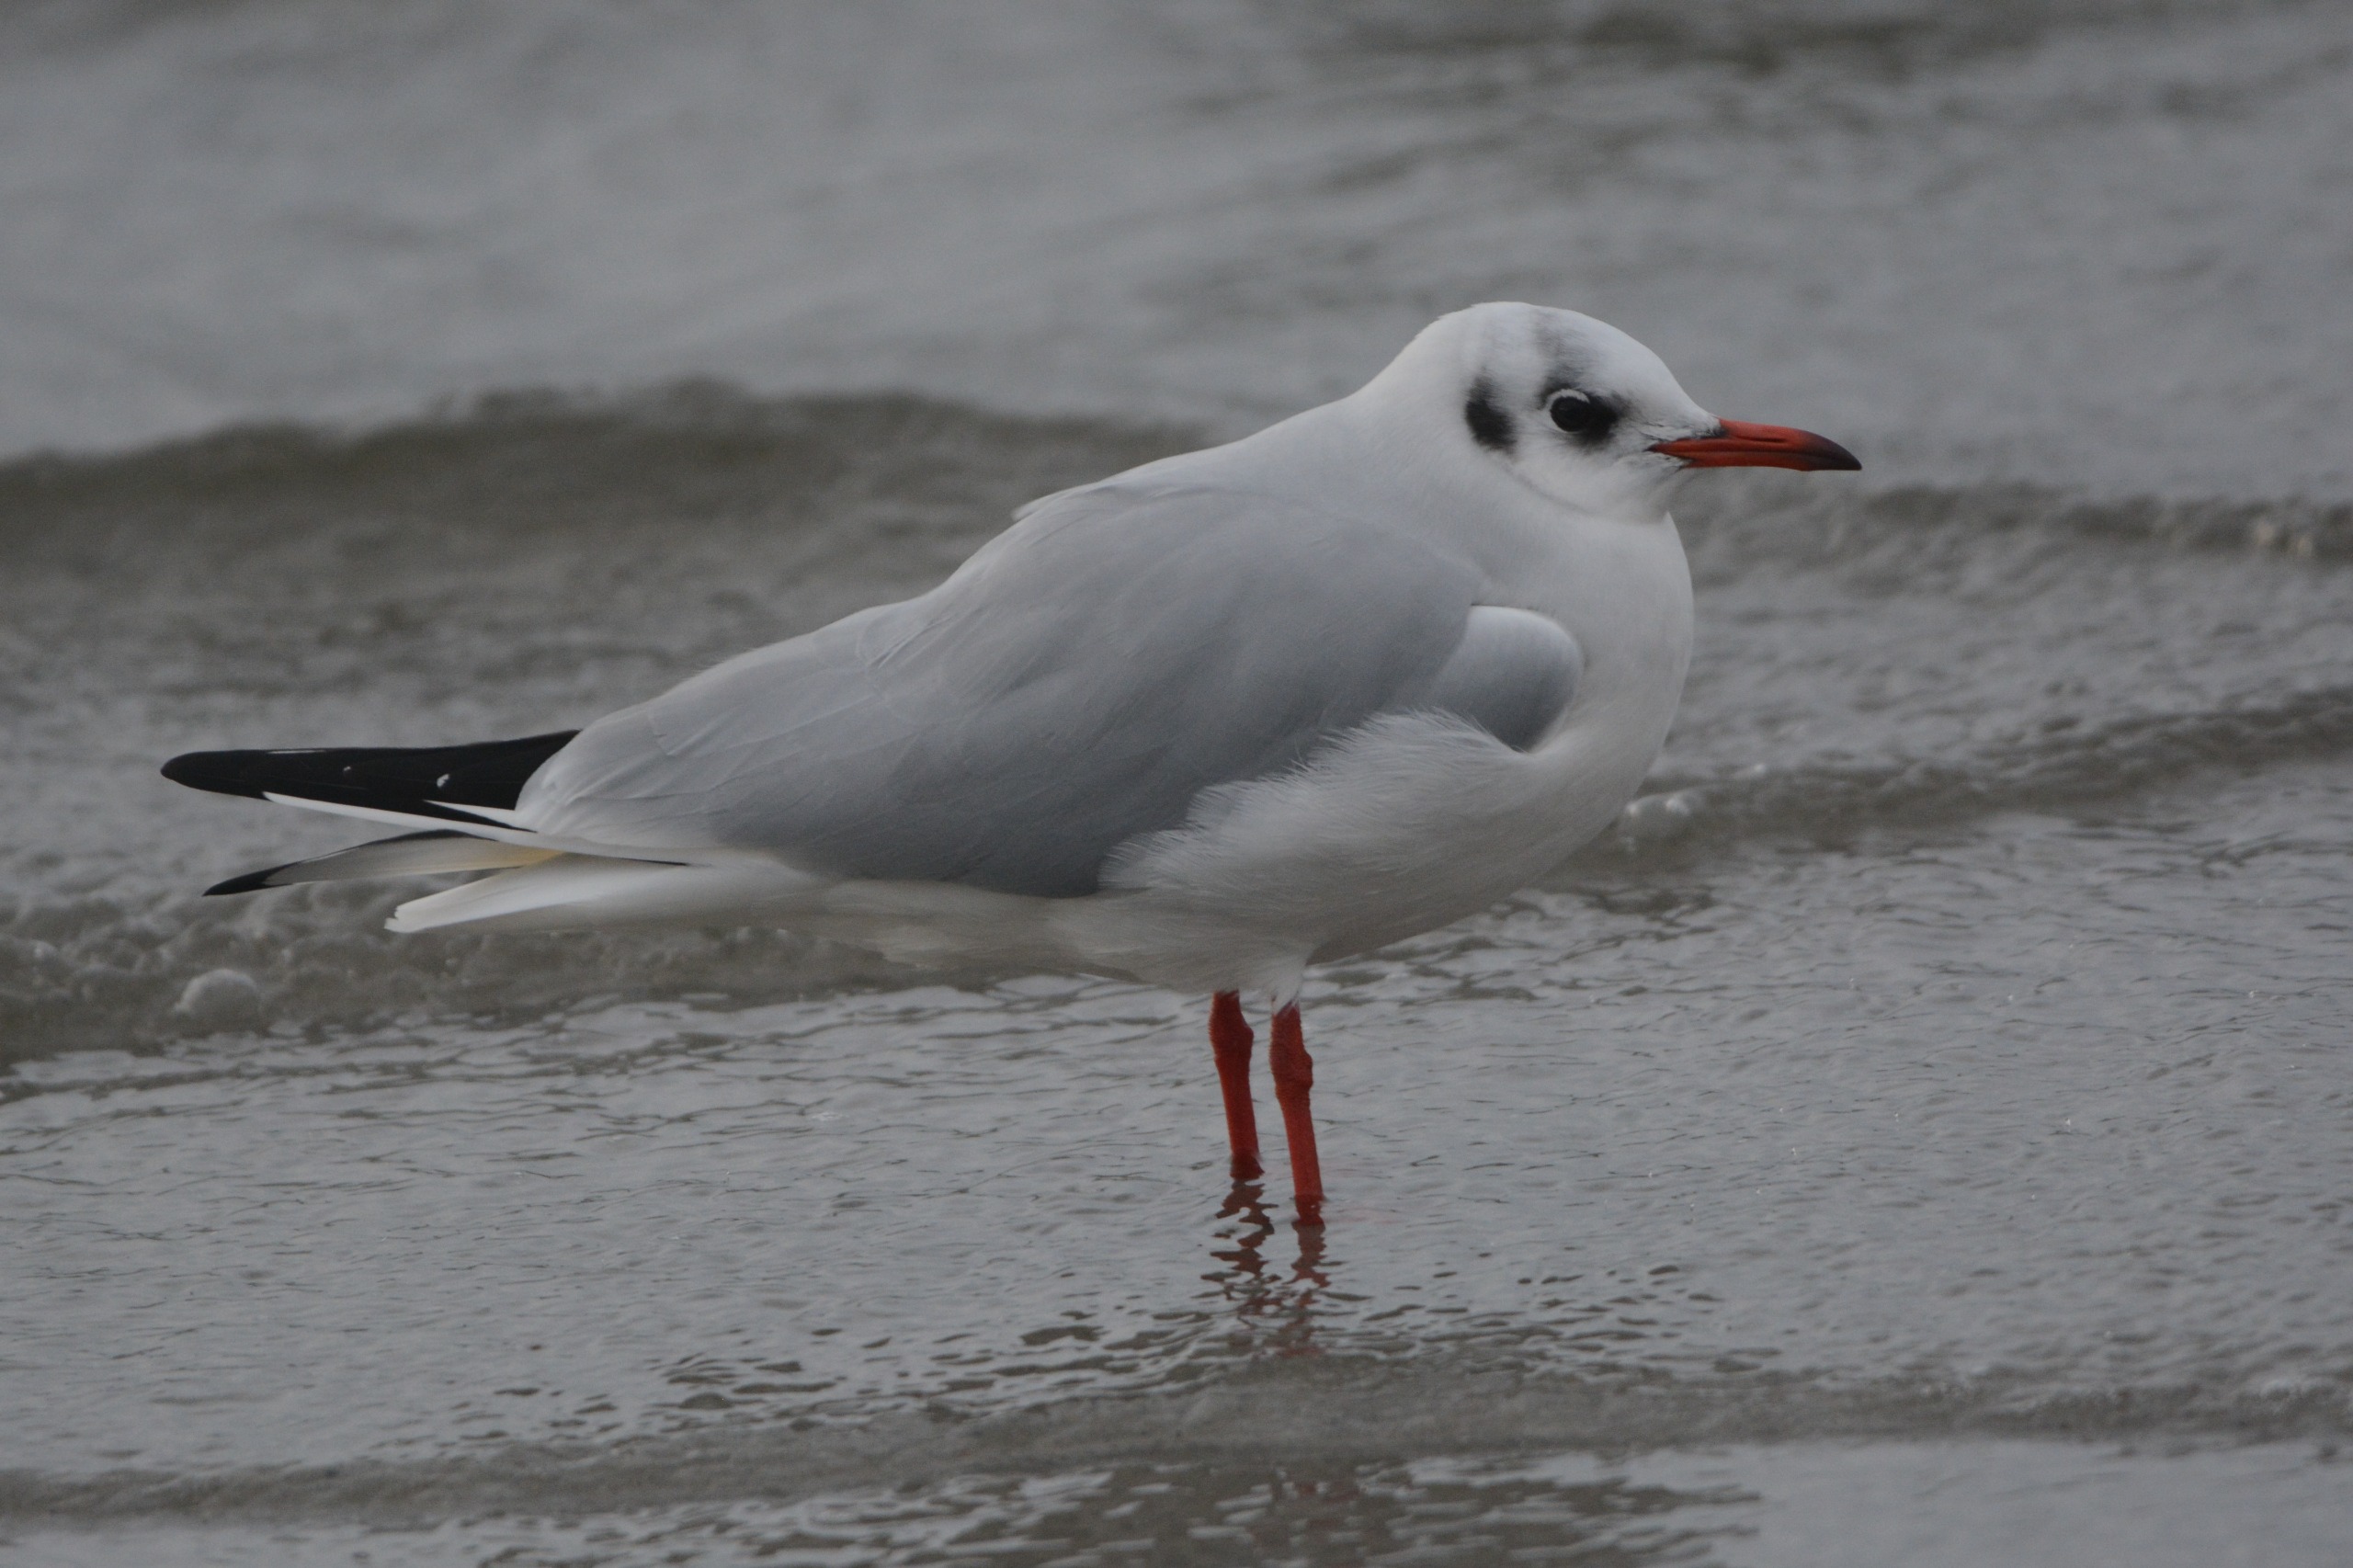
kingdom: Animalia
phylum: Chordata
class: Aves
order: Charadriiformes
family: Laridae
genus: Chroicocephalus
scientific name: Chroicocephalus ridibundus
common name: Hættemåge
